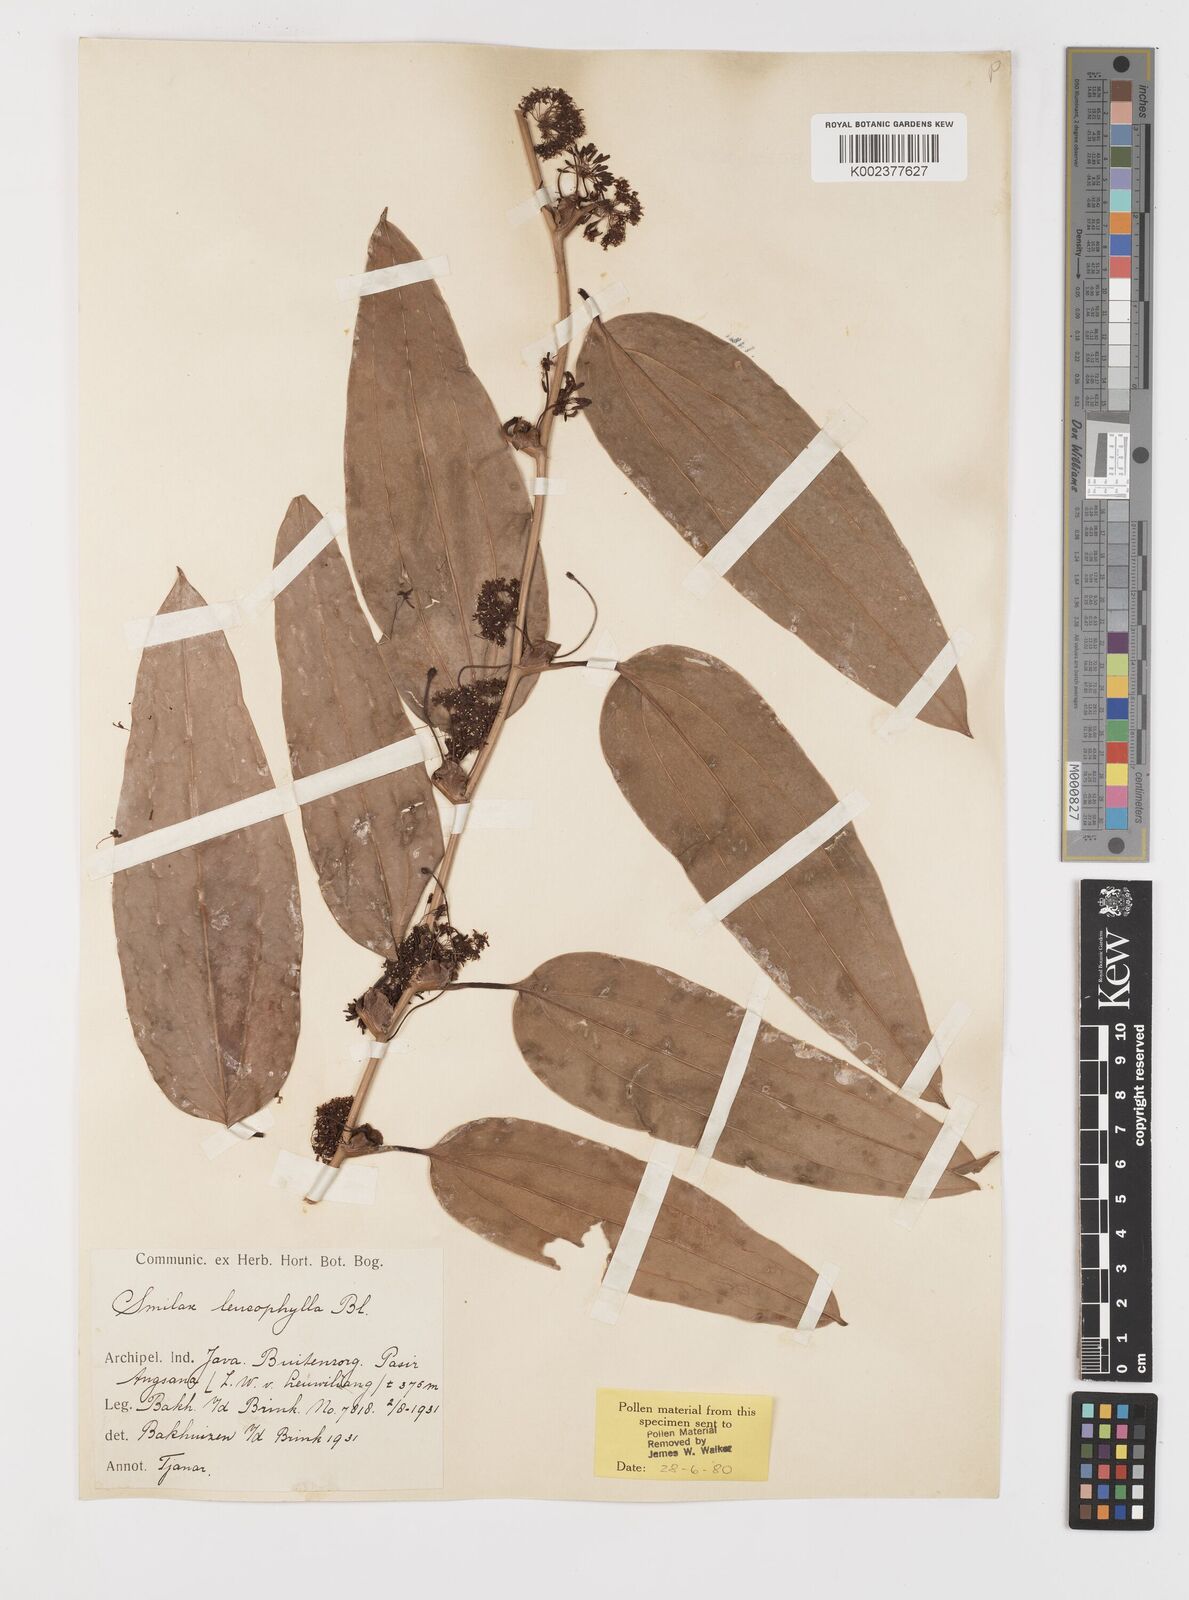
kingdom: Plantae
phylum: Tracheophyta
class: Liliopsida
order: Liliales
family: Smilacaceae
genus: Smilax
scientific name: Smilax leucophylla
